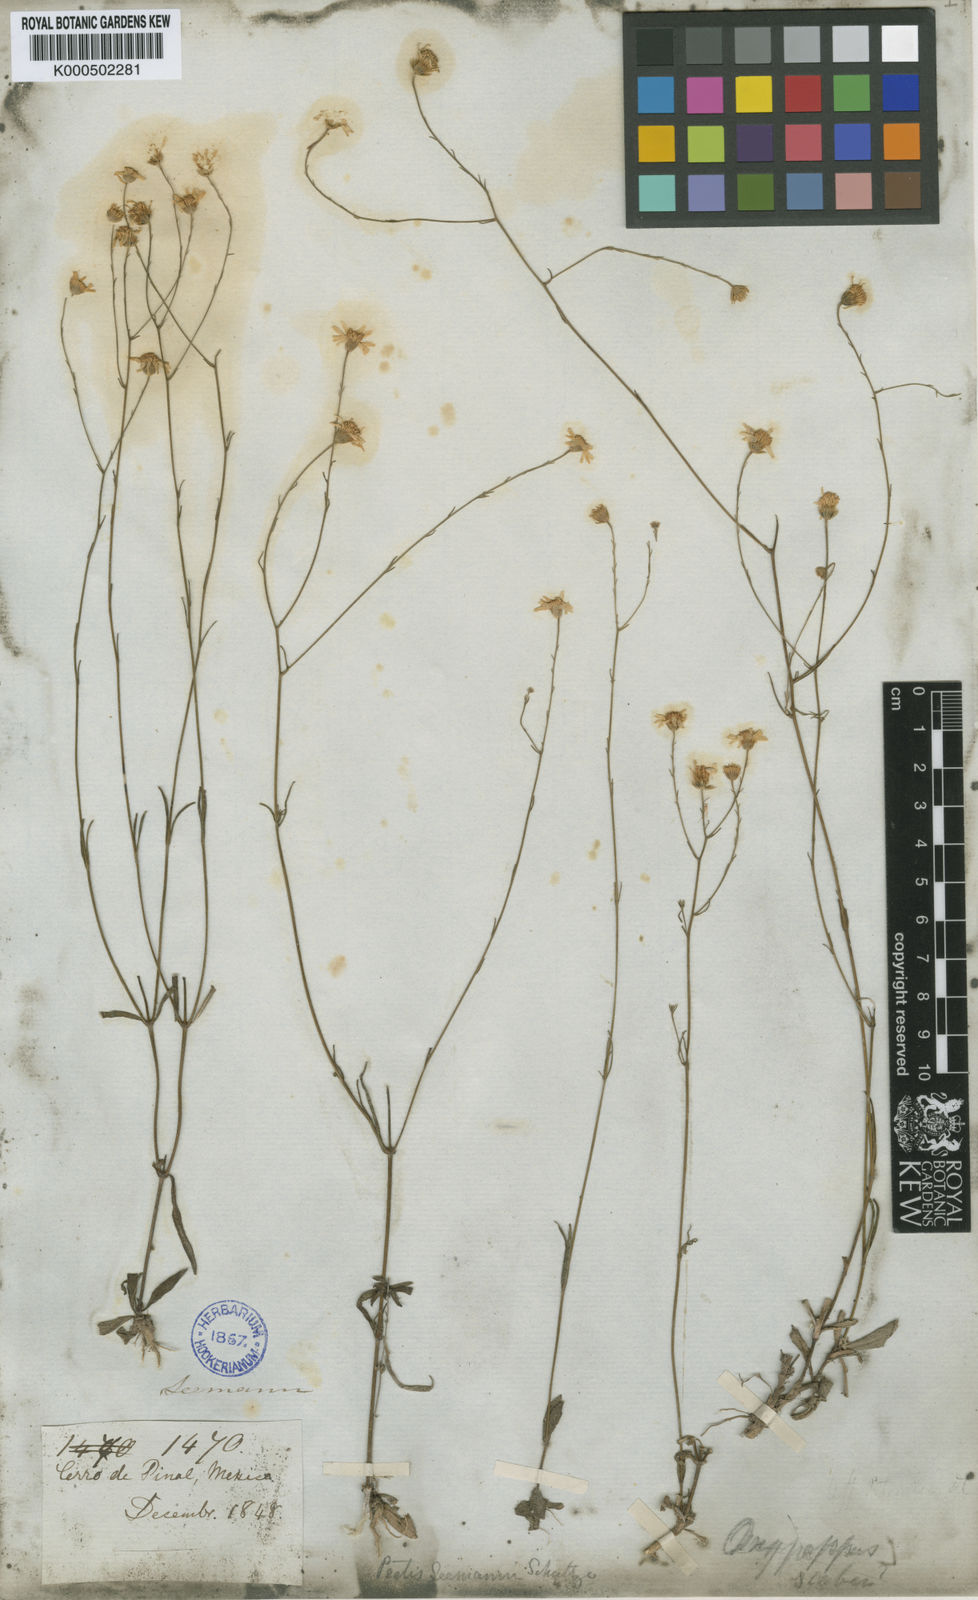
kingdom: Plantae
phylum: Tracheophyta
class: Magnoliopsida
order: Asterales
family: Asteraceae
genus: Oxypappus
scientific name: Oxypappus scaber
